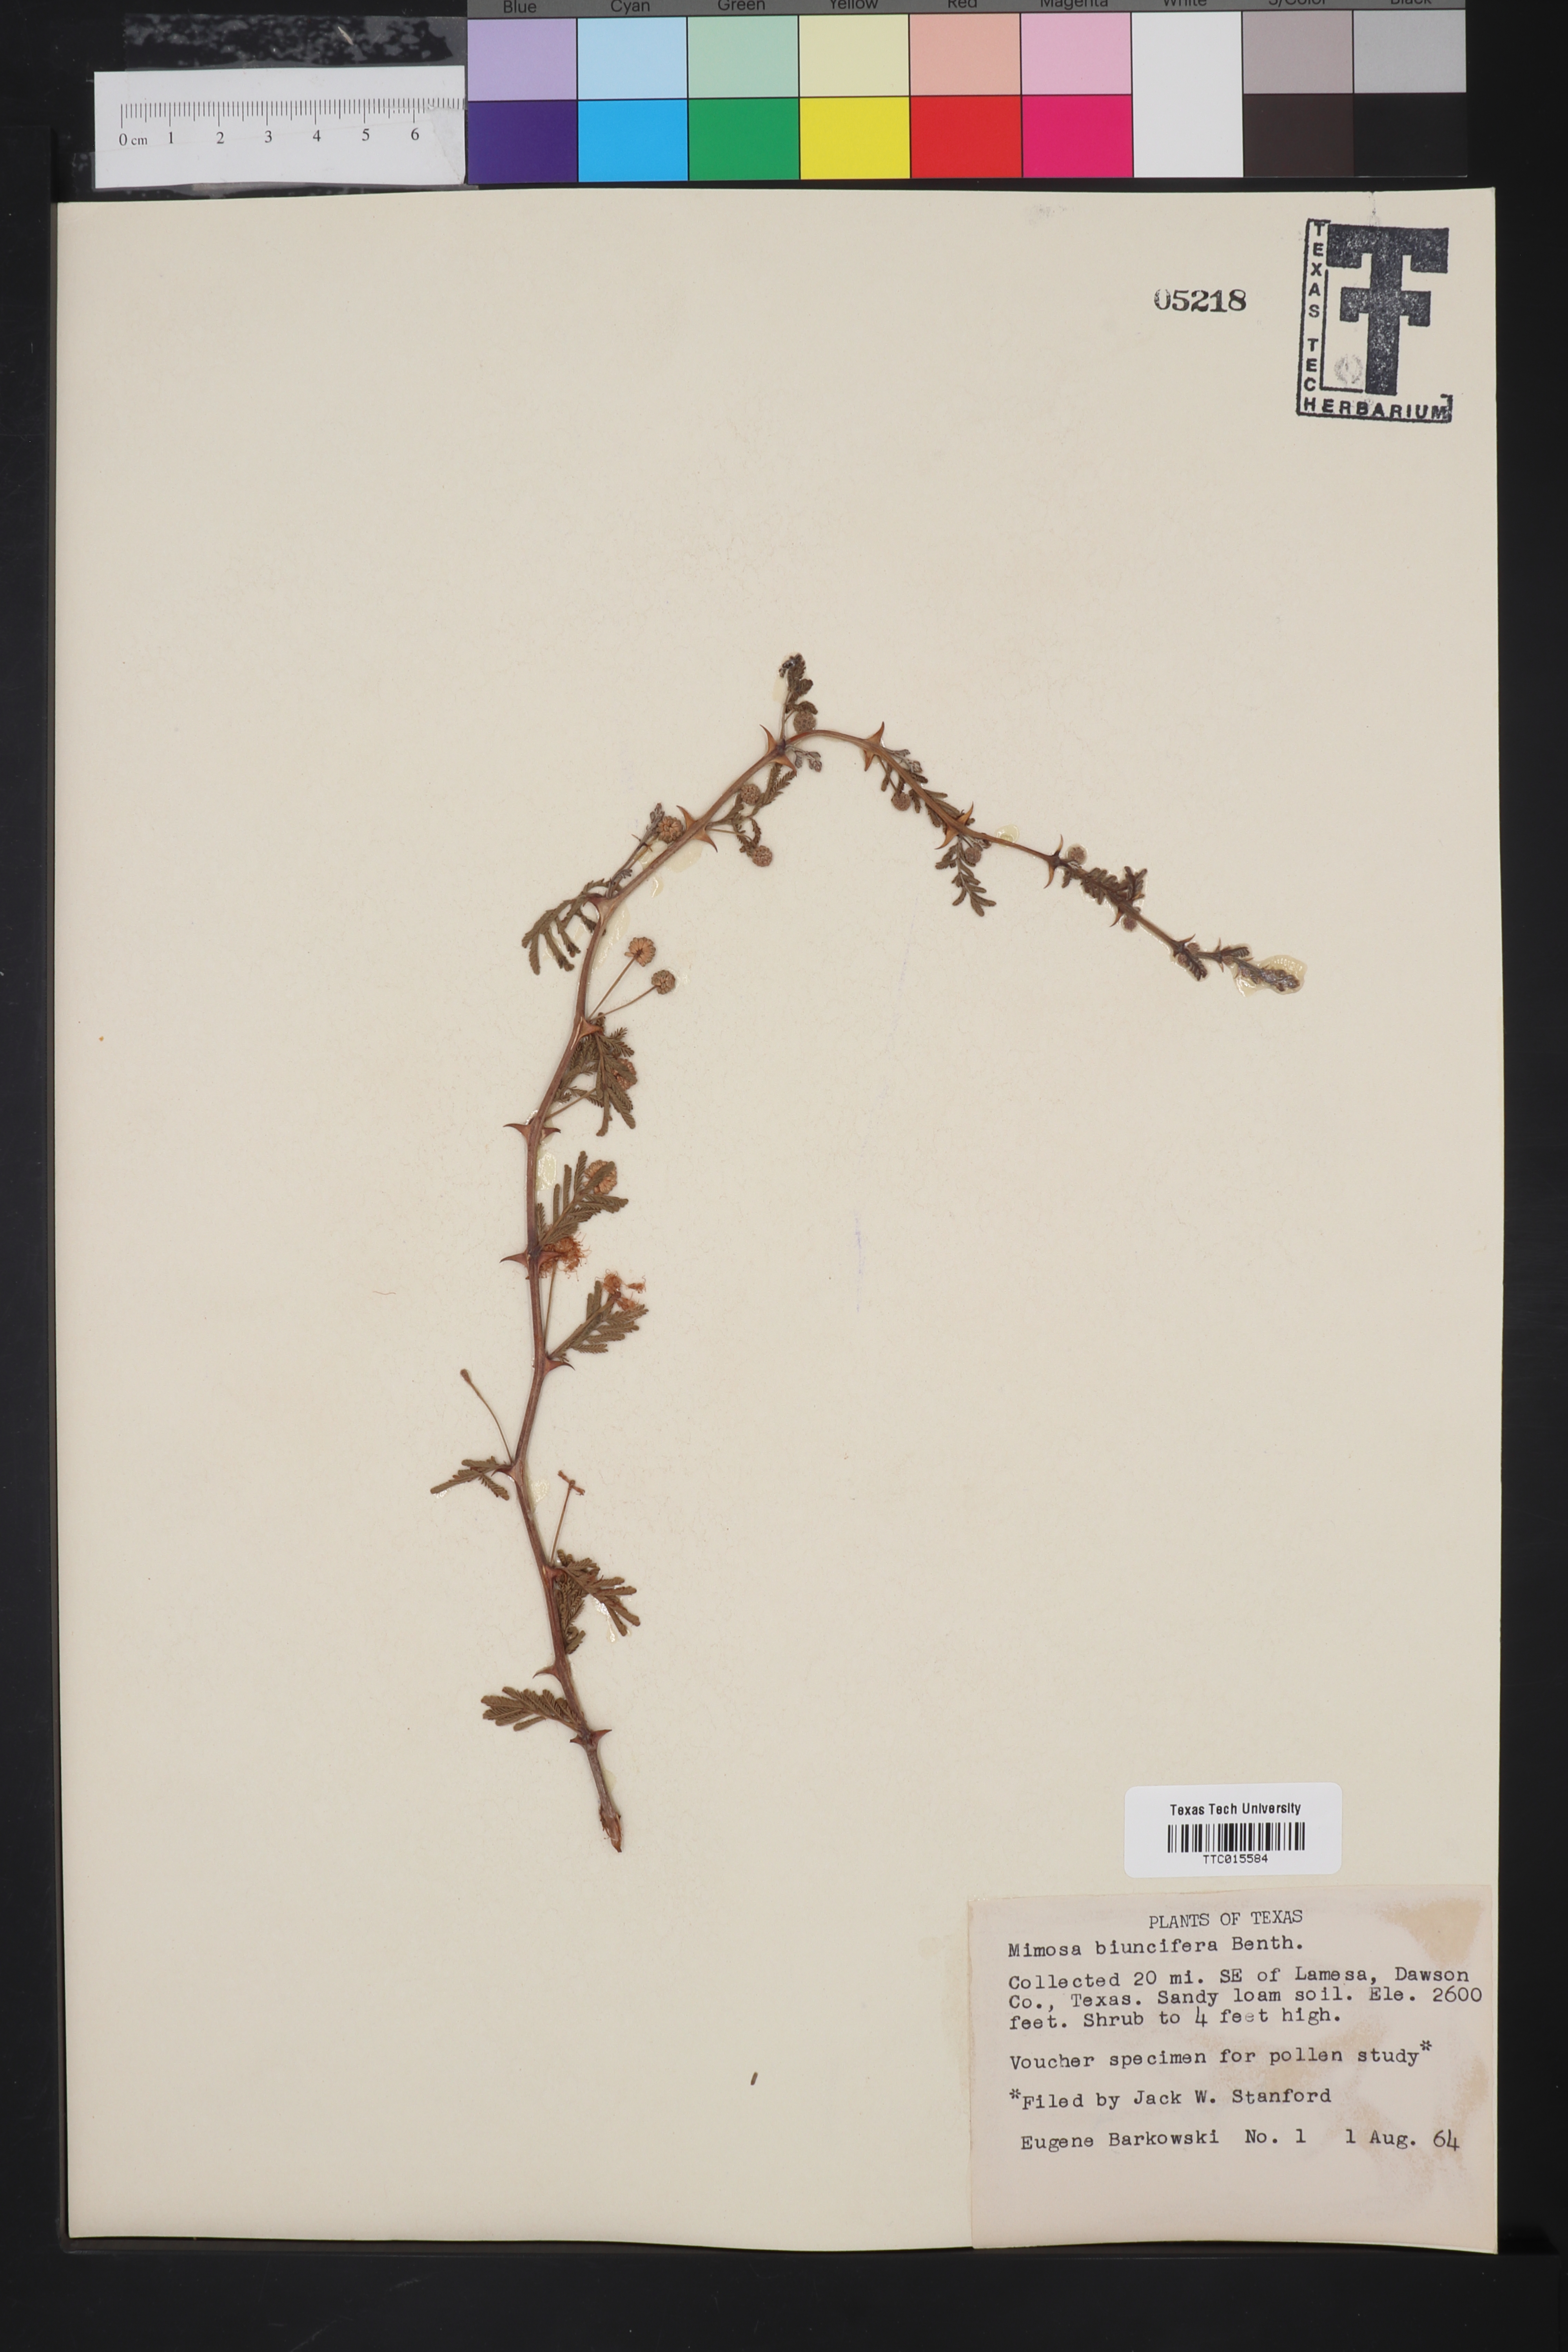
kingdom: Plantae
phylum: Tracheophyta
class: Magnoliopsida
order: Fabales
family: Fabaceae
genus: Mimosa
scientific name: Mimosa biuncifera
